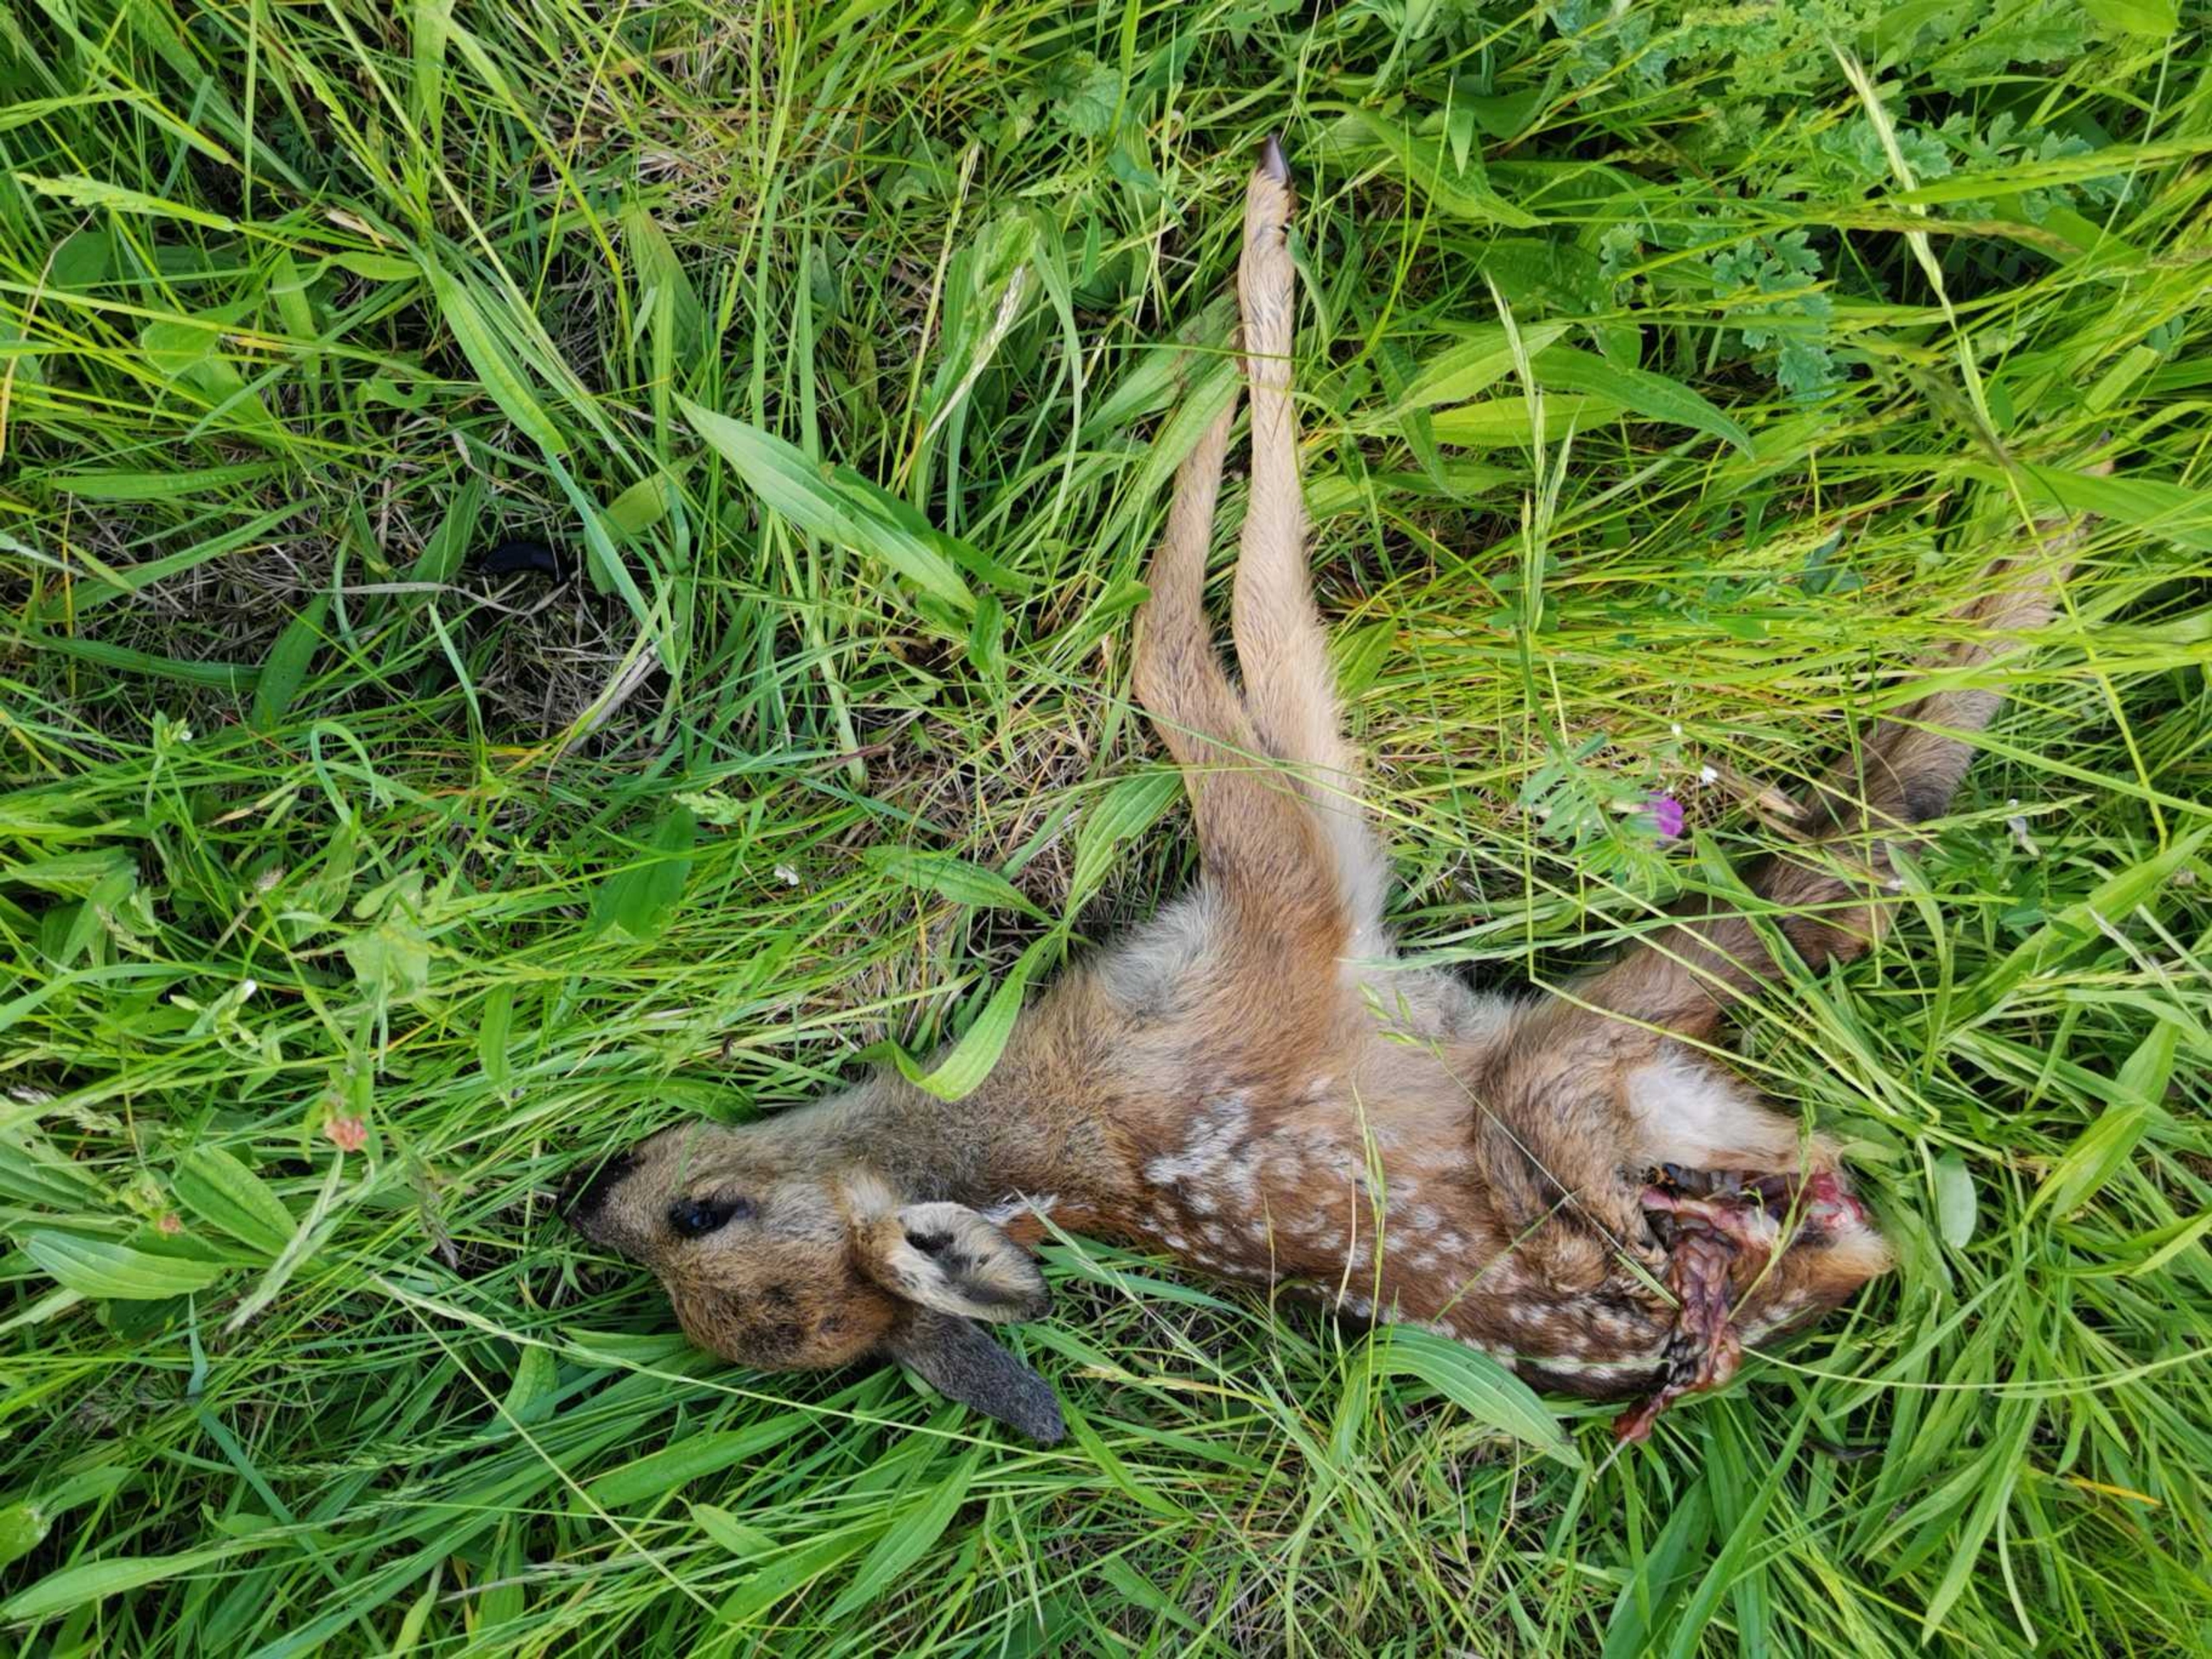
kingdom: Animalia
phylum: Chordata
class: Mammalia
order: Artiodactyla
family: Cervidae
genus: Capreolus
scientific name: Capreolus capreolus
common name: Rådyr
